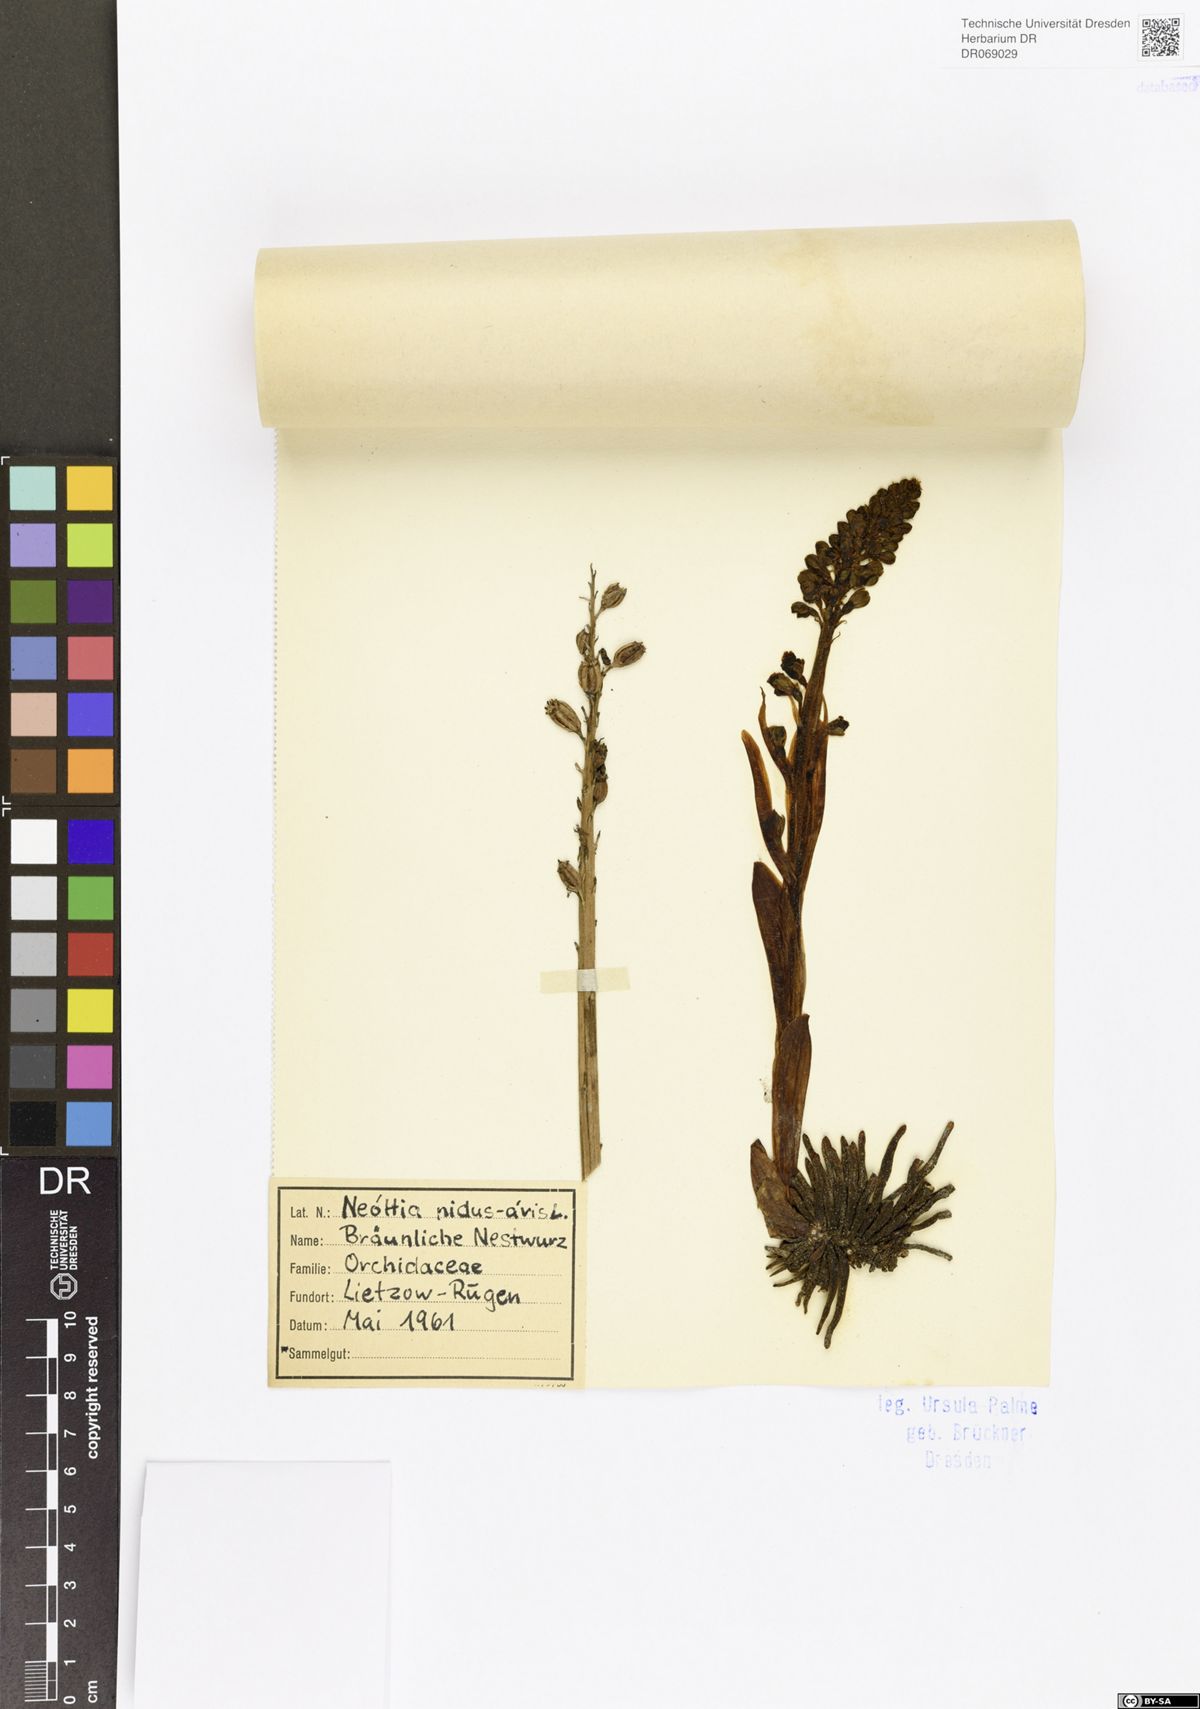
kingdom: Plantae
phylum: Tracheophyta
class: Liliopsida
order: Asparagales
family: Orchidaceae
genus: Neottia
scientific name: Neottia nidus-avis
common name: Bird's-nest orchid
